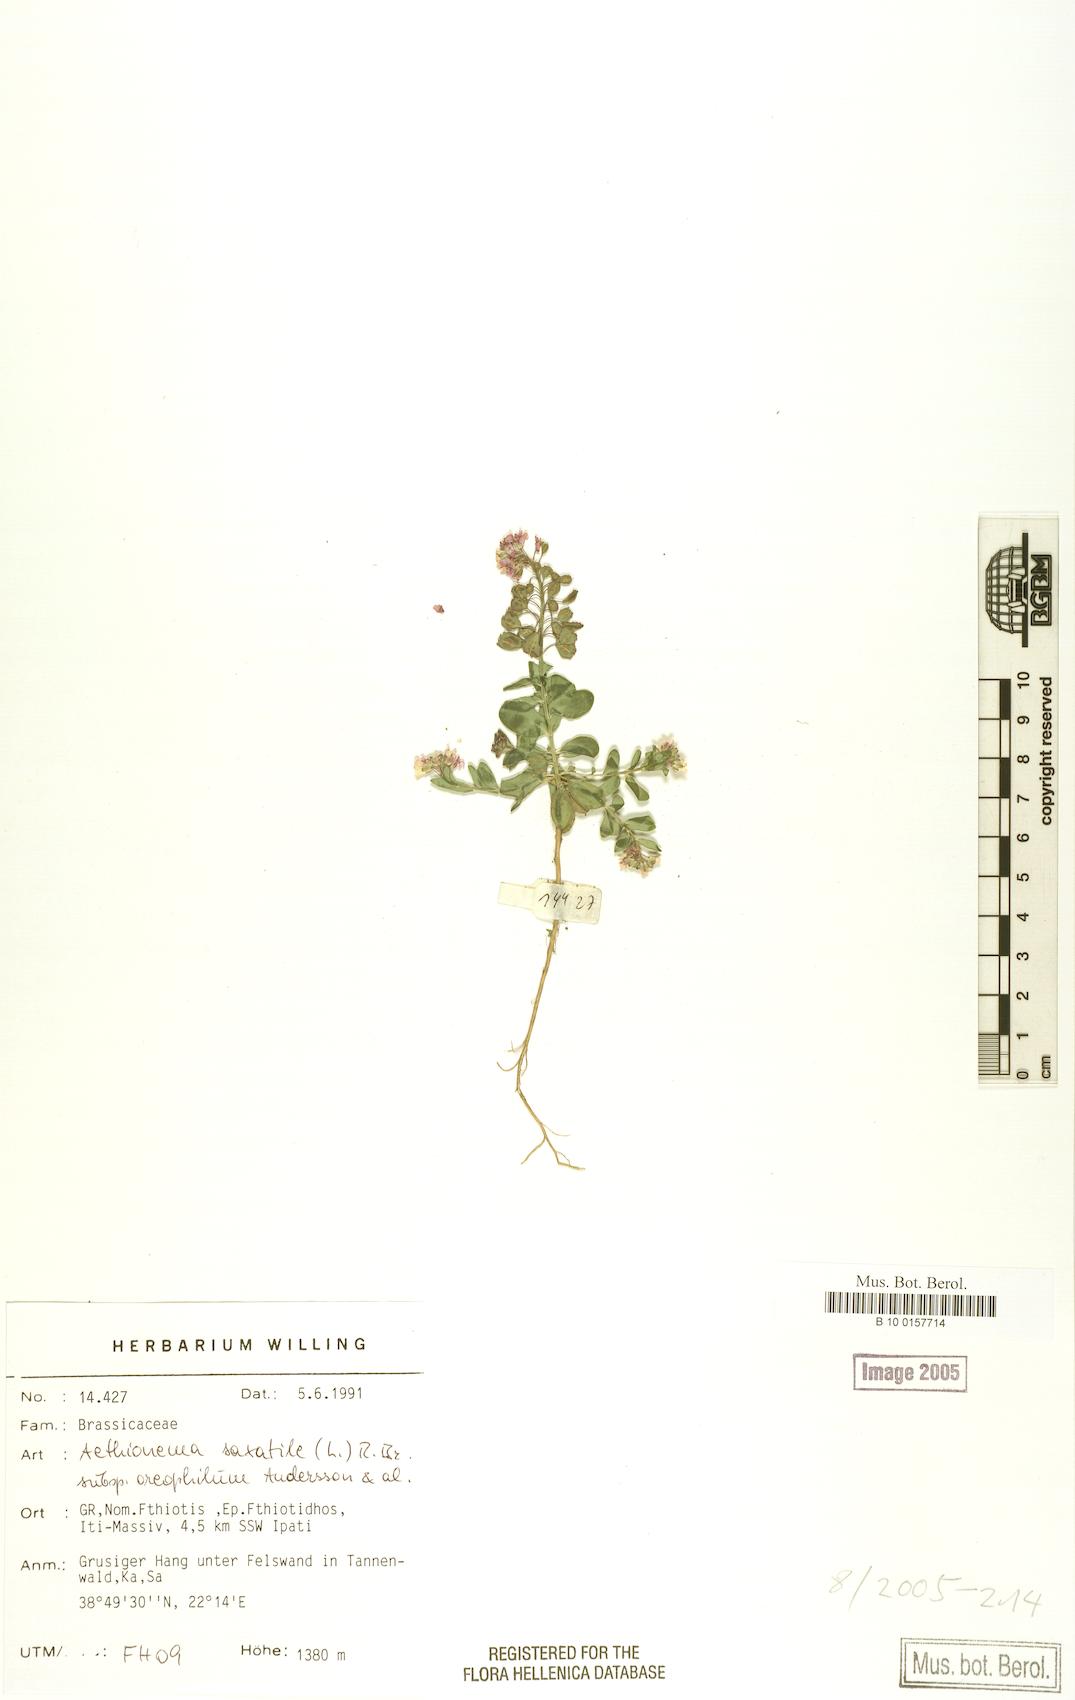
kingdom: Plantae
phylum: Tracheophyta
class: Magnoliopsida
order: Brassicales
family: Brassicaceae
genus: Aethionema
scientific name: Aethionema saxatile
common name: Burnt candytuft
